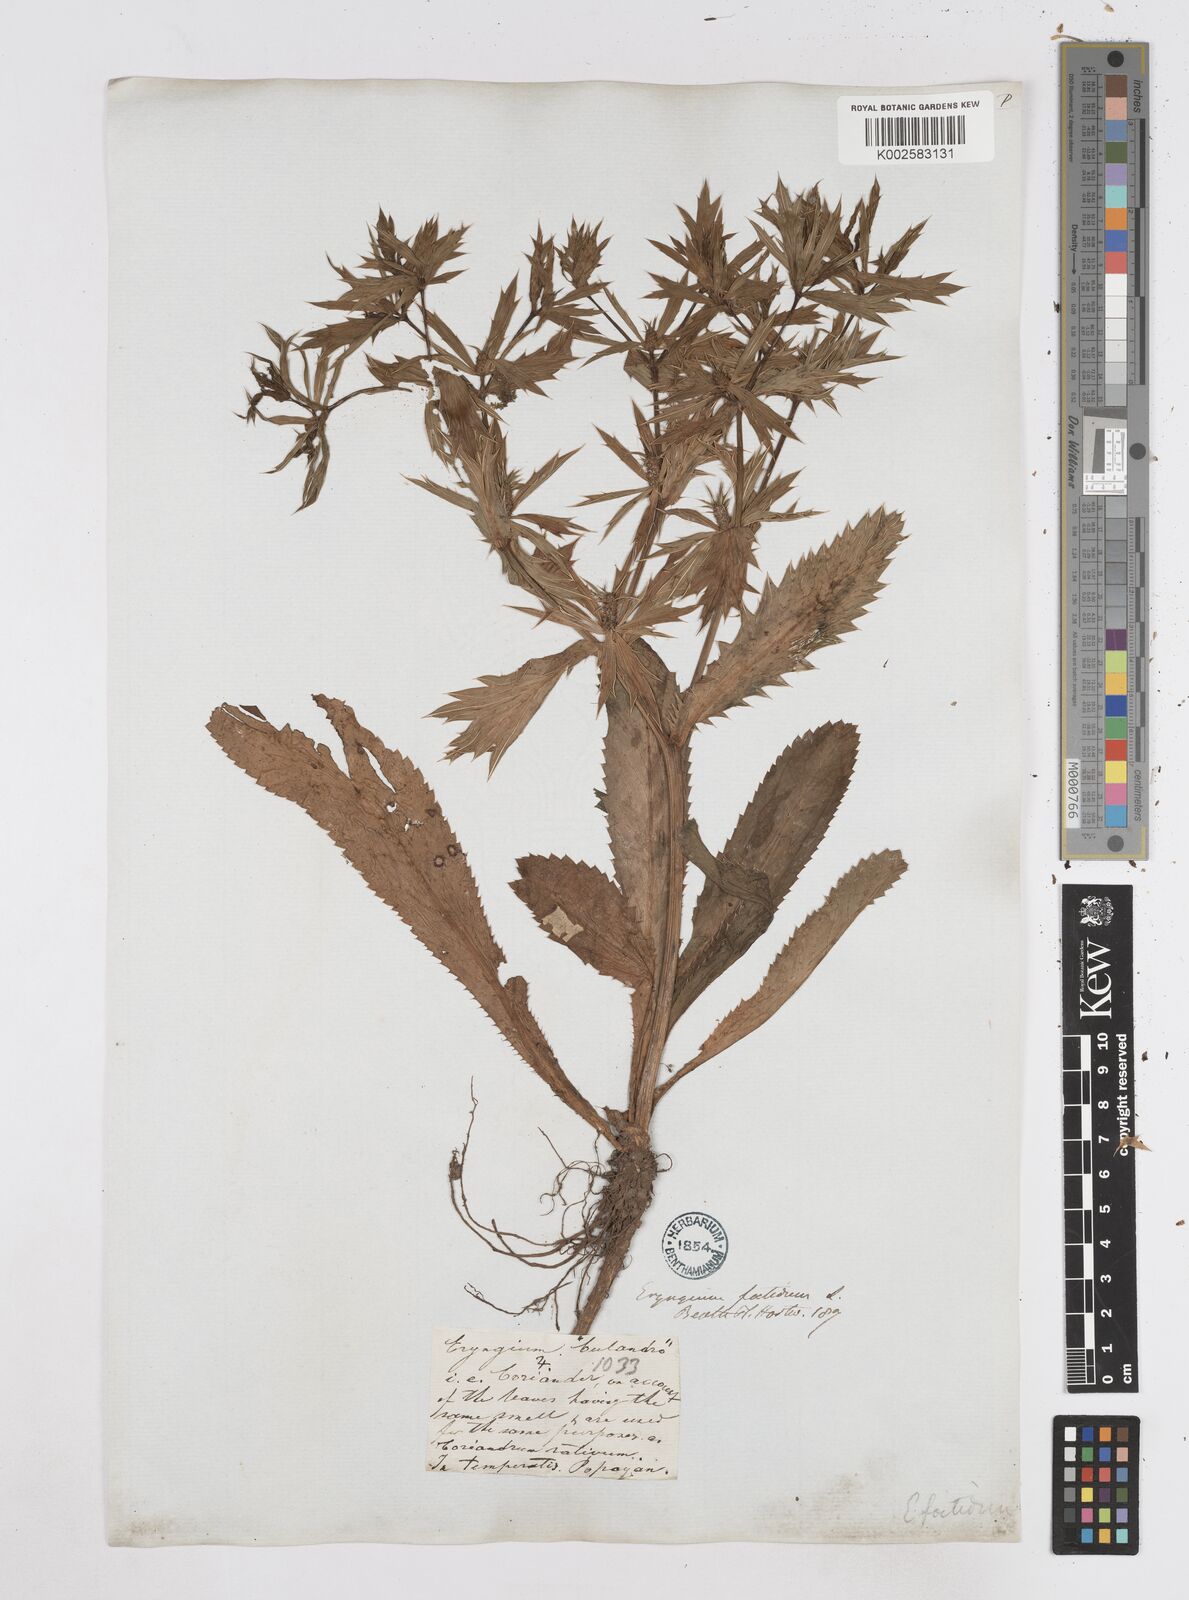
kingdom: Plantae
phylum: Tracheophyta
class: Magnoliopsida
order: Apiales
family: Apiaceae
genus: Eryngium
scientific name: Eryngium foetidum
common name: Fitweed
